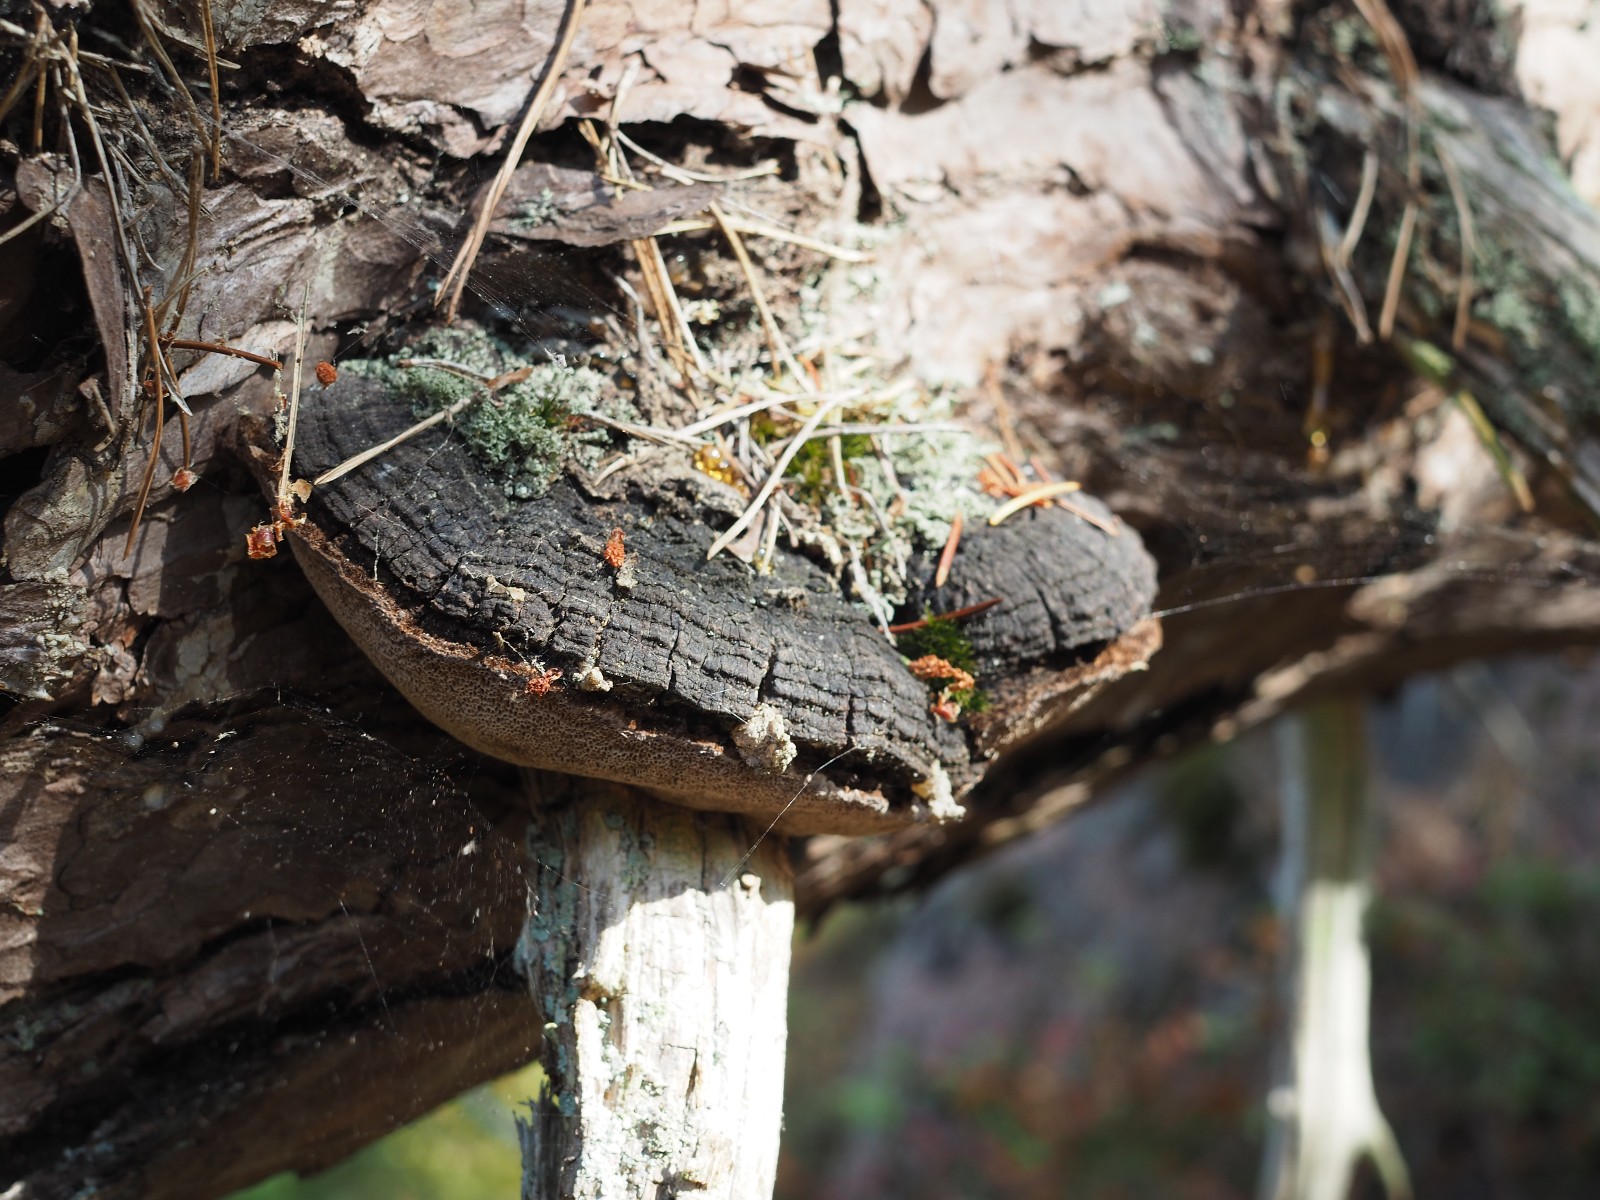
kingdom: Fungi
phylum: Basidiomycota
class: Agaricomycetes
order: Hymenochaetales
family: Hymenochaetaceae
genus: Porodaedalea
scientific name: Porodaedalea pini
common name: fyrre-ildporesvamp
